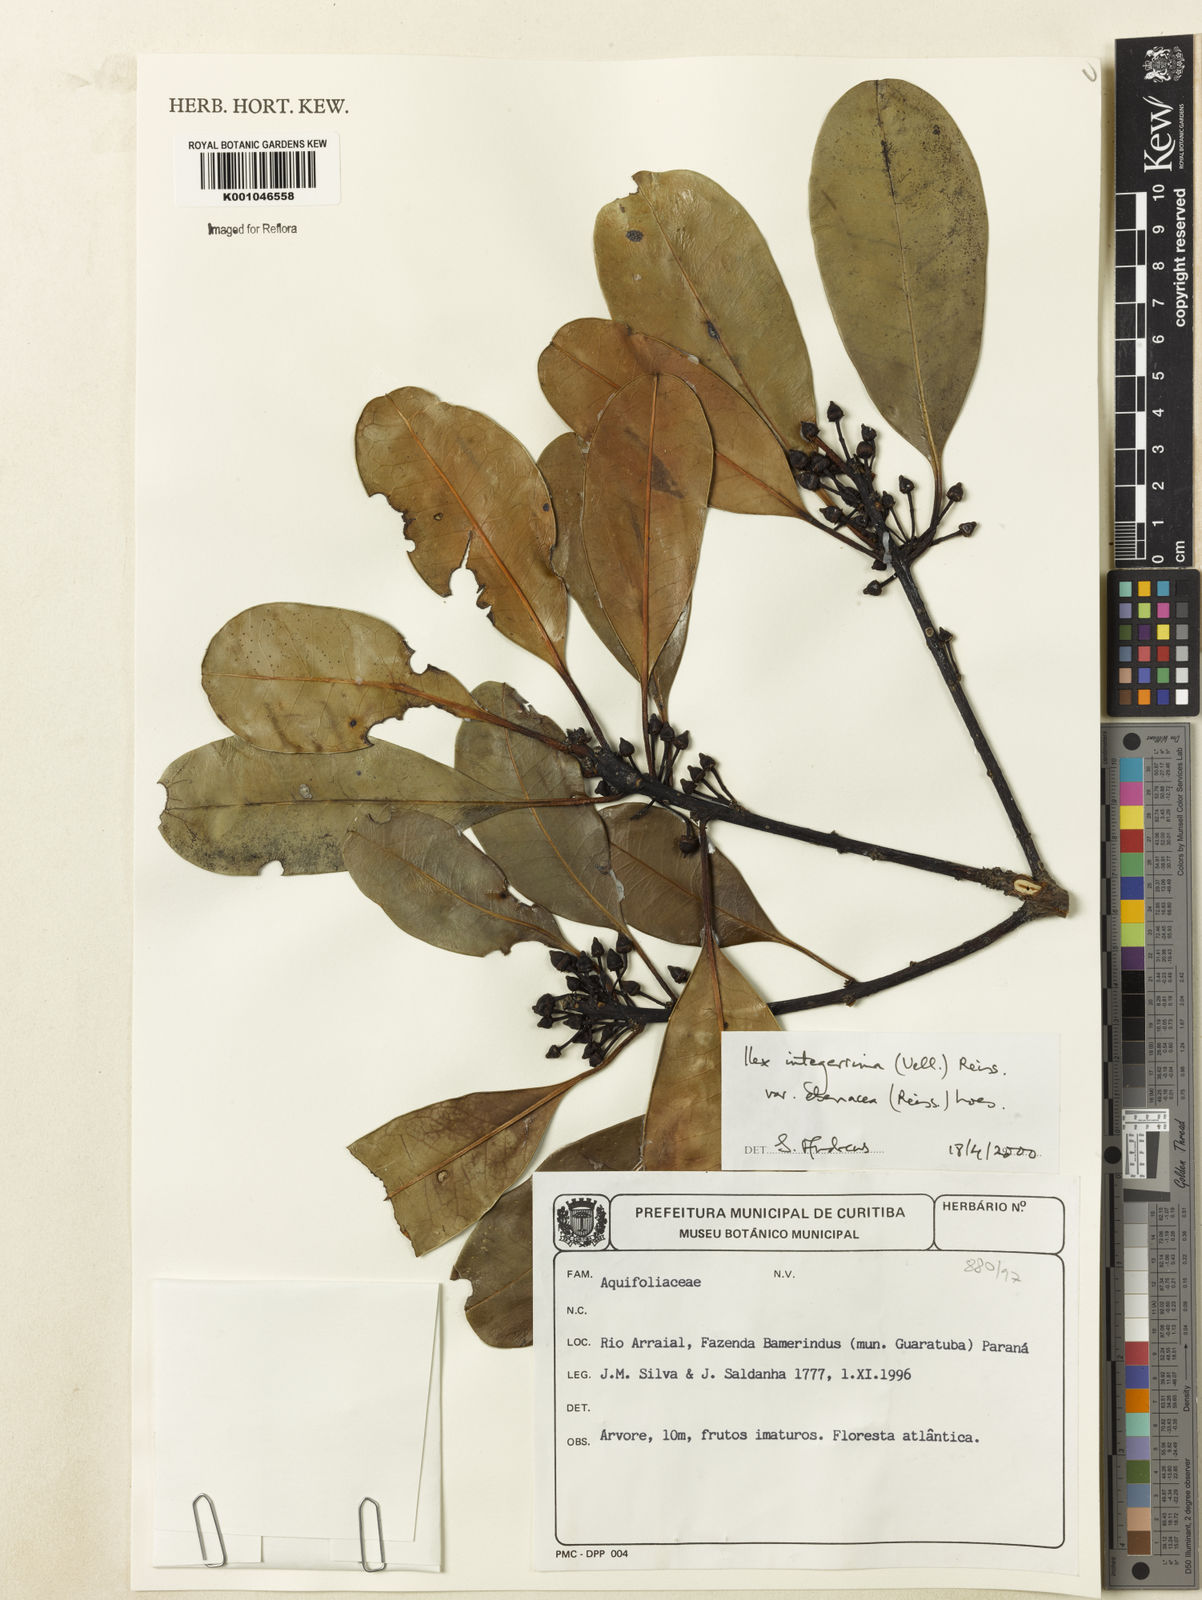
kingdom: Plantae
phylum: Tracheophyta
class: Magnoliopsida
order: Aquifoliales
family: Aquifoliaceae
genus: Ilex
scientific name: Ilex integerrima
